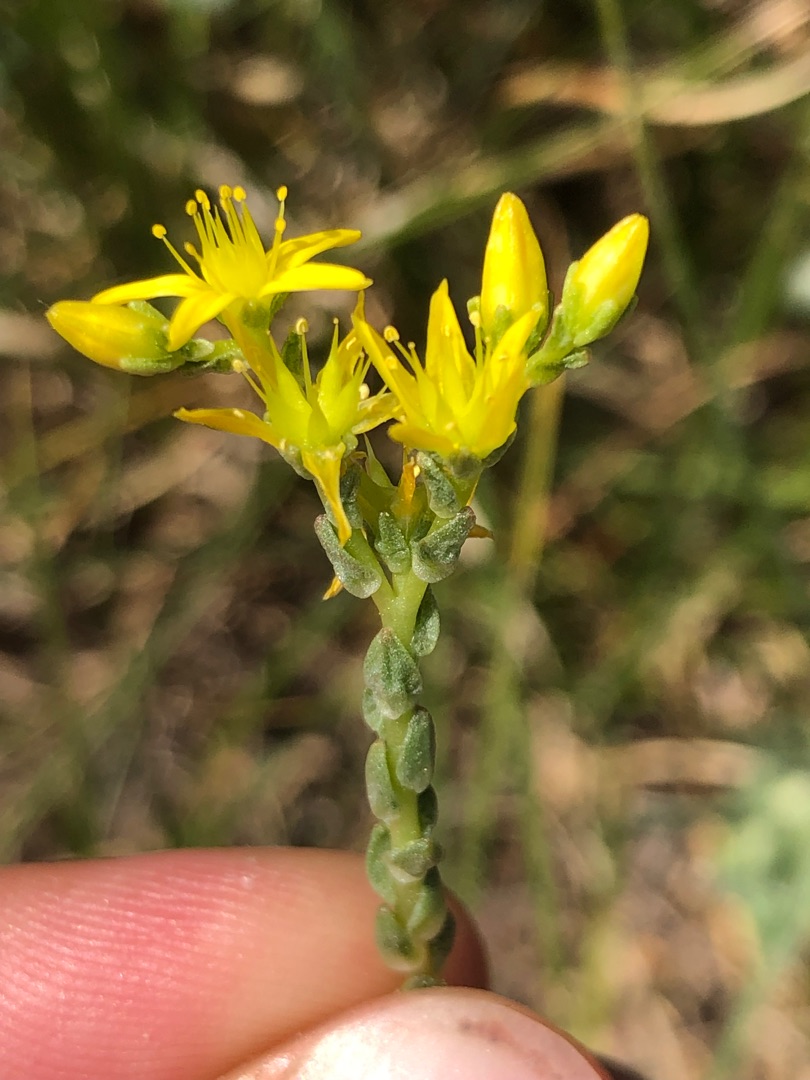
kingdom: Plantae
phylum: Tracheophyta
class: Magnoliopsida
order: Saxifragales
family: Crassulaceae
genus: Sedum
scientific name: Sedum acre
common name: Bidende stenurt
